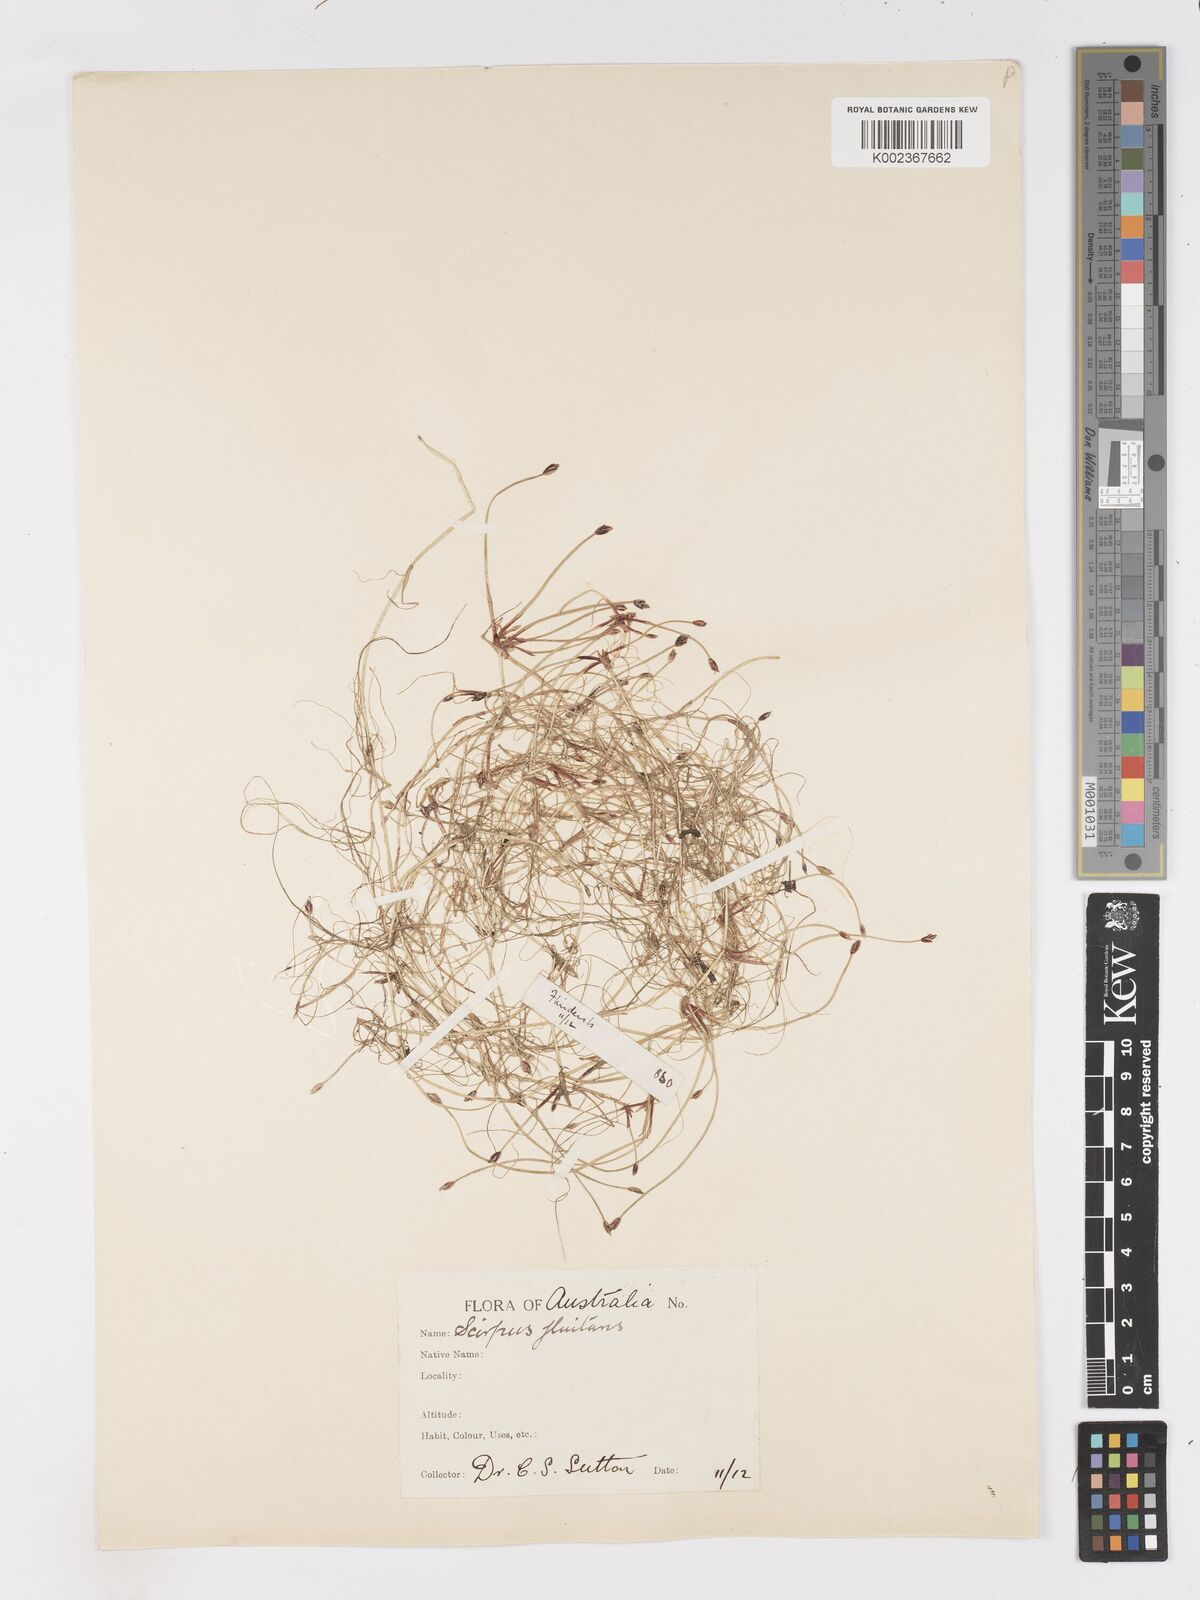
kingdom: Plantae
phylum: Tracheophyta
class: Liliopsida
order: Poales
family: Cyperaceae
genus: Isolepis
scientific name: Isolepis fluitans
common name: Floating club-rush
